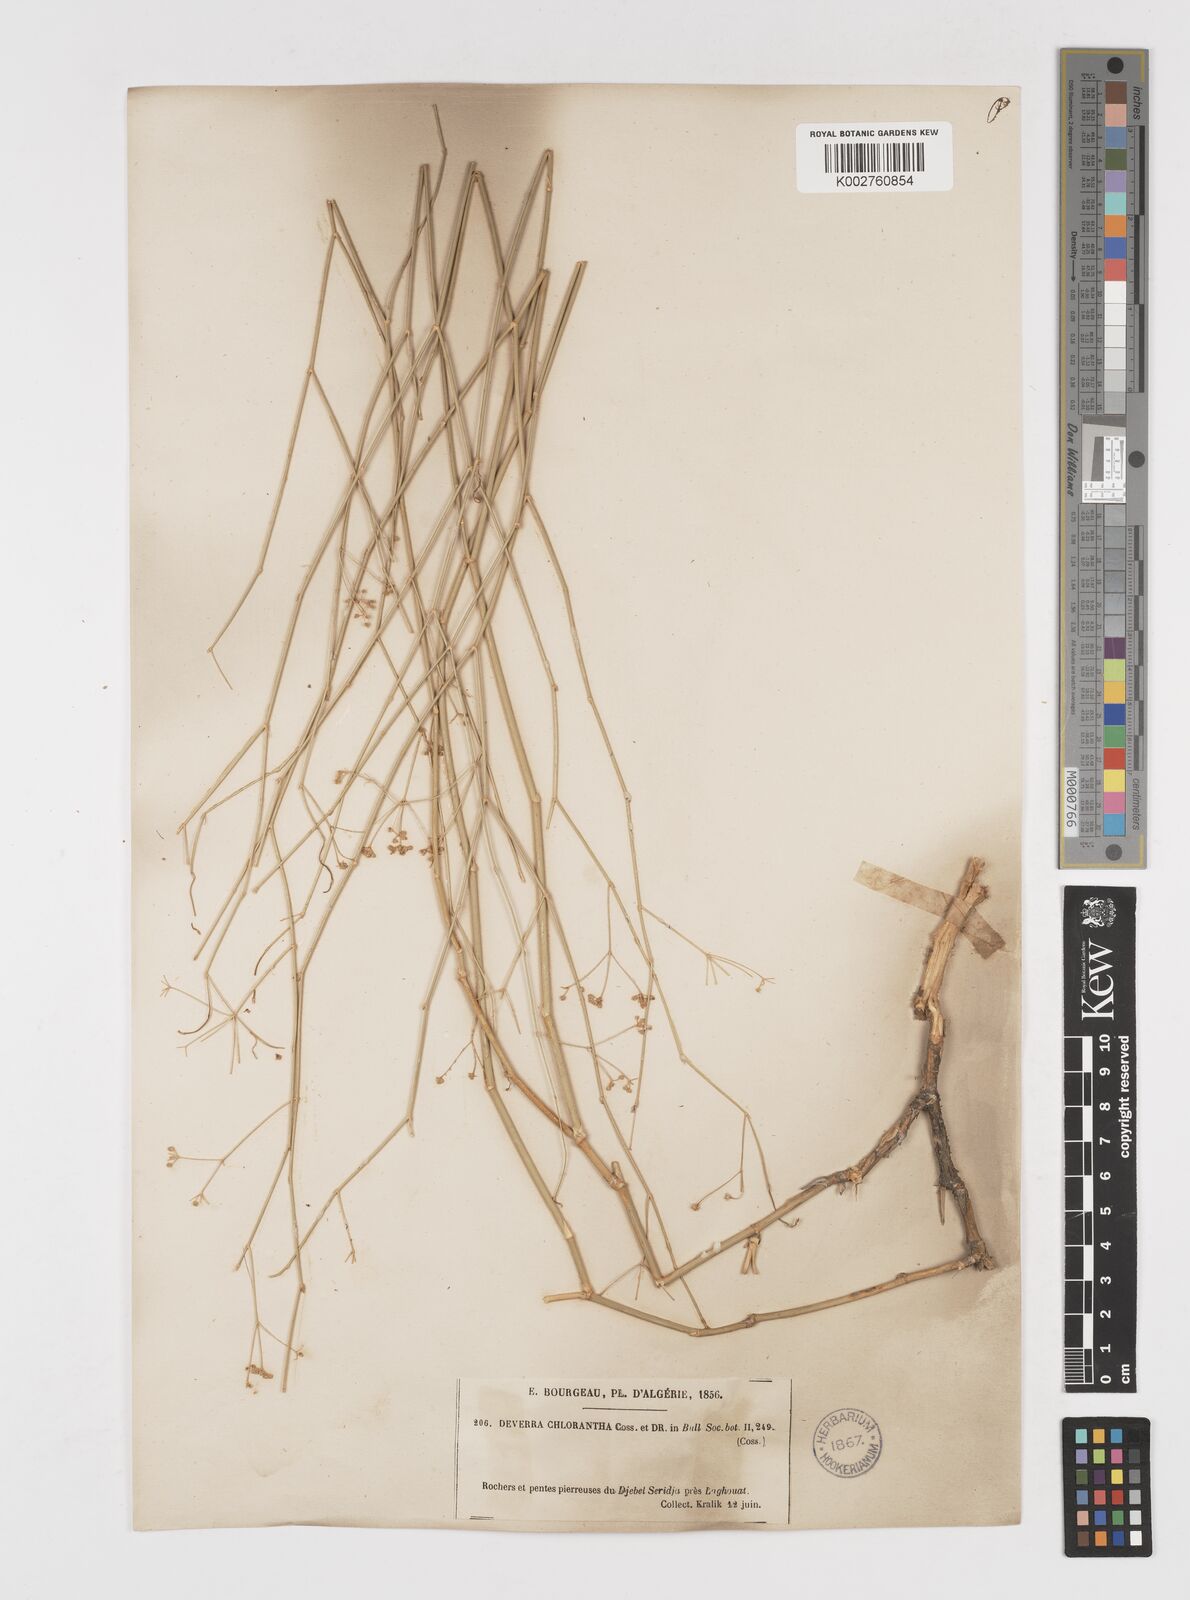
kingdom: Plantae
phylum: Tracheophyta
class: Magnoliopsida
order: Apiales
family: Apiaceae
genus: Deverra
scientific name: Deverra denudata
